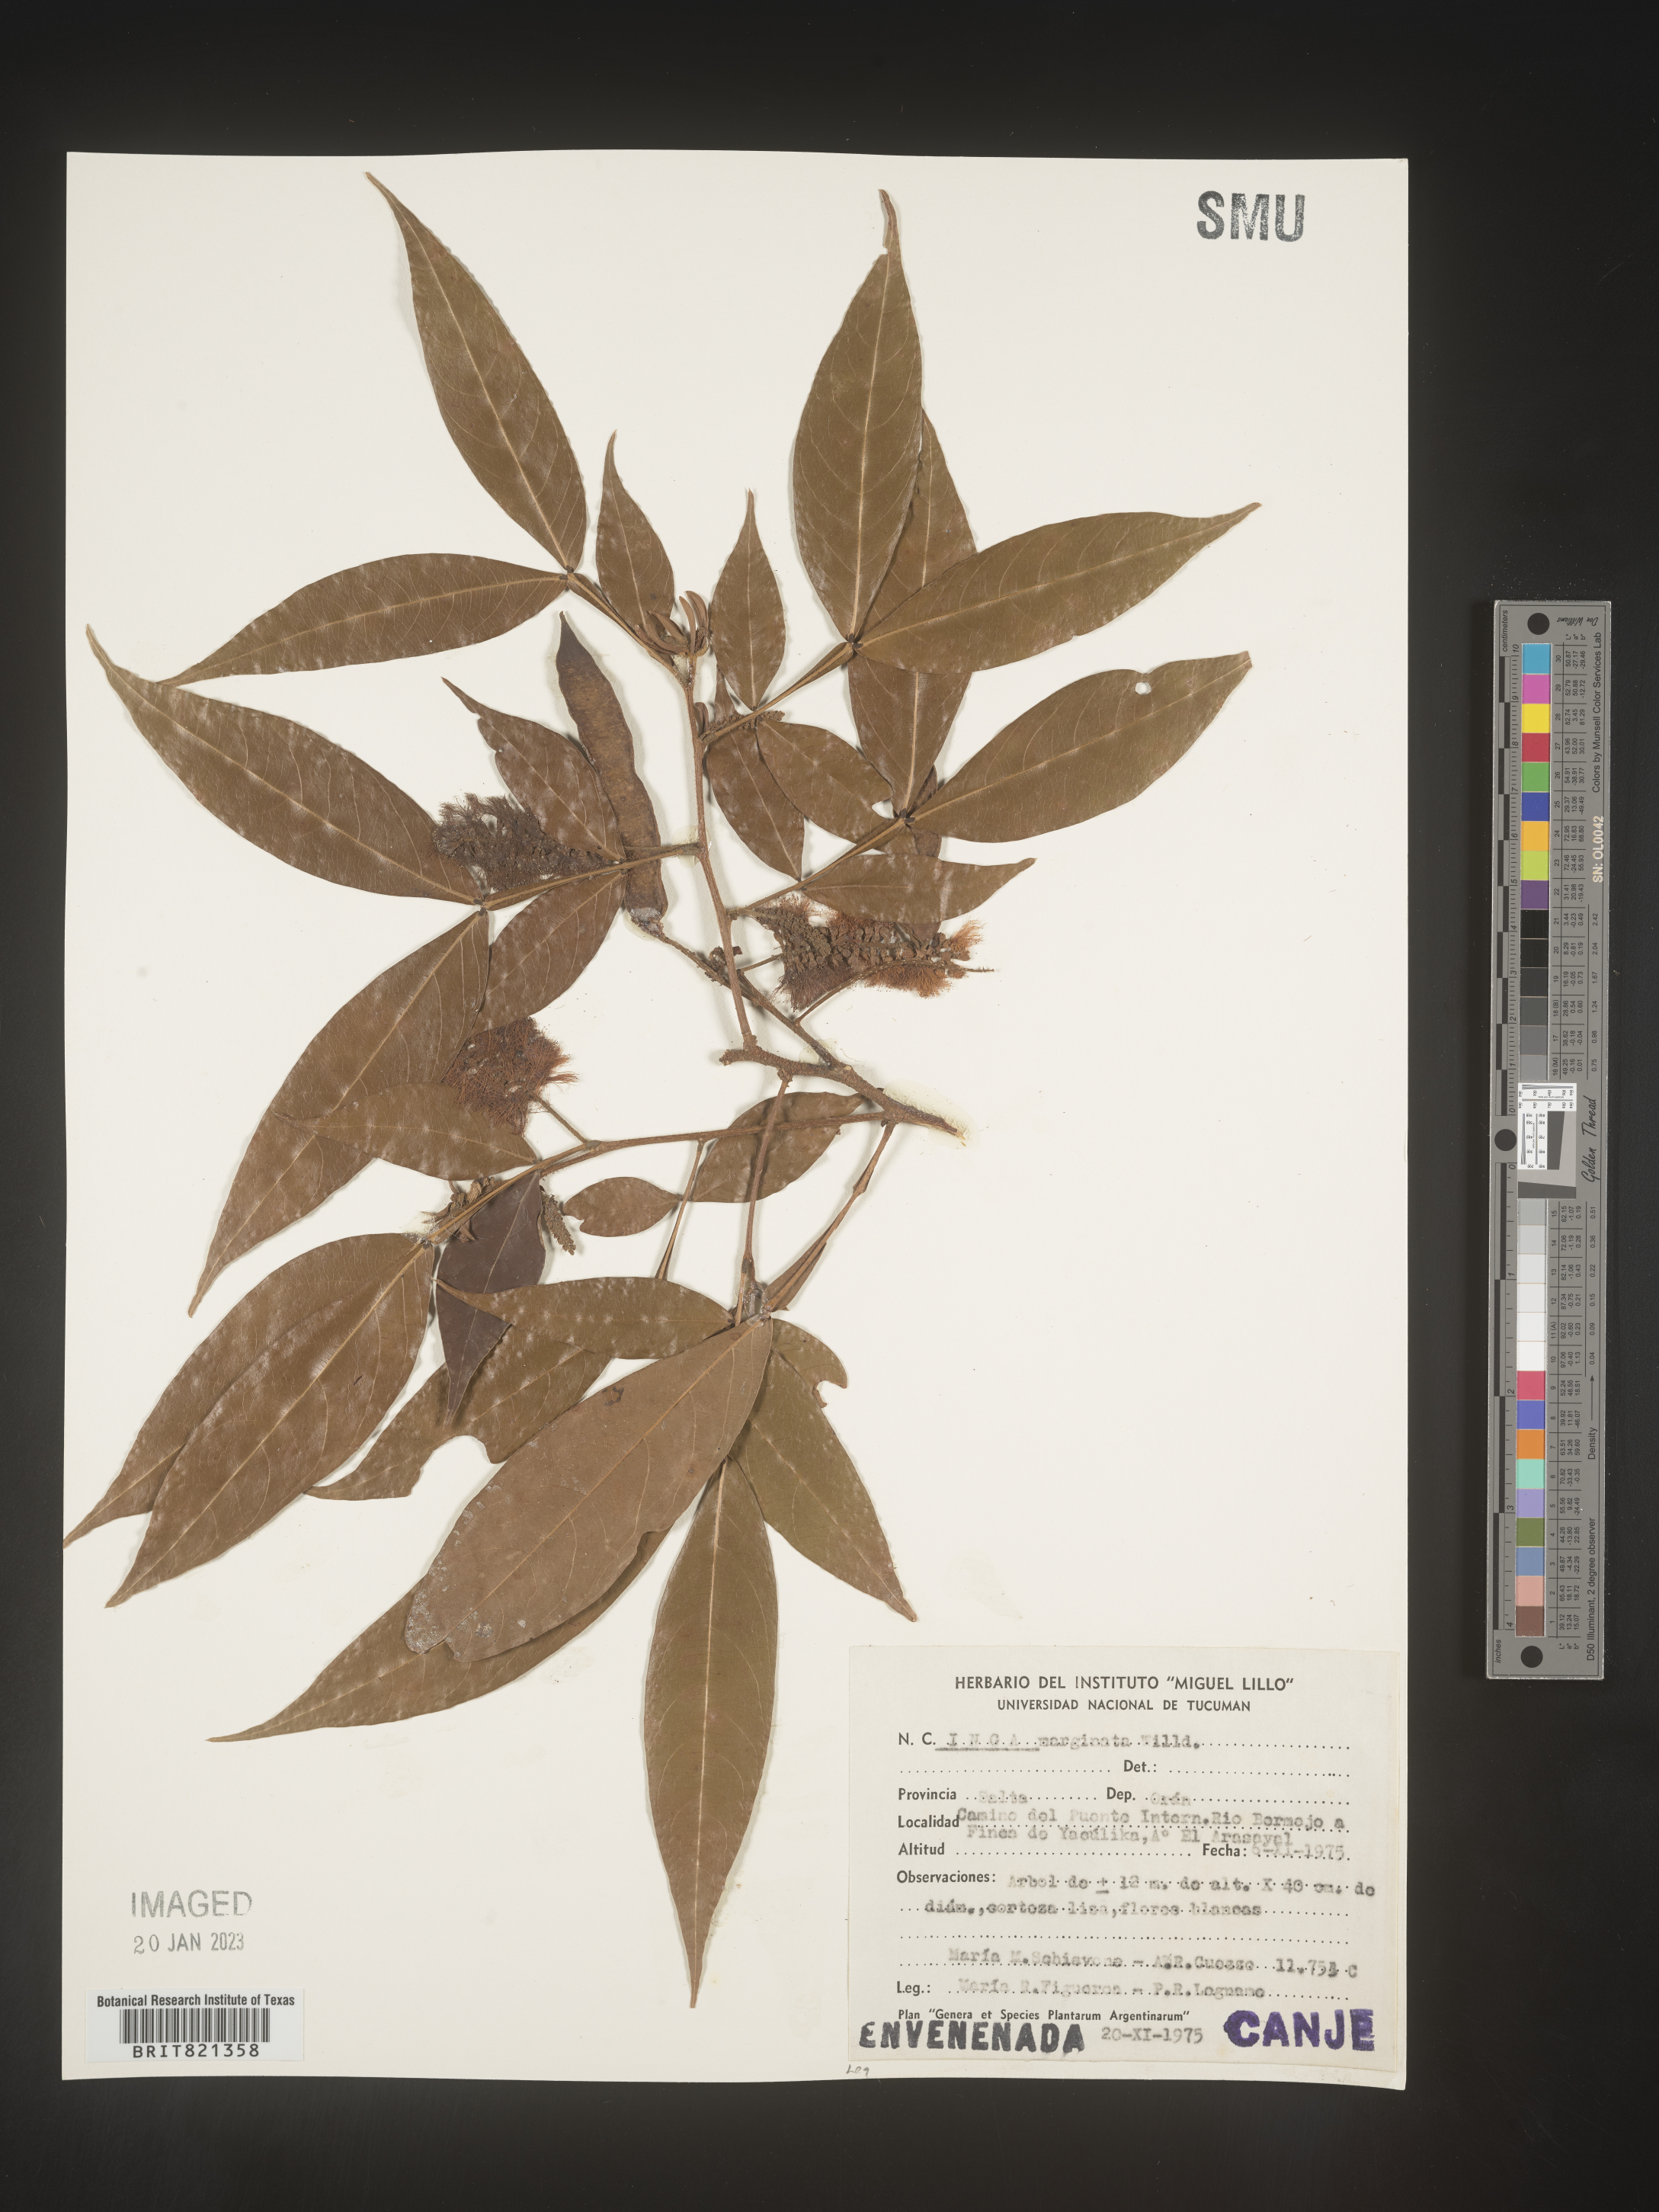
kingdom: Plantae
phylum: Tracheophyta
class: Magnoliopsida
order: Fabales
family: Fabaceae
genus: Inga
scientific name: Inga
